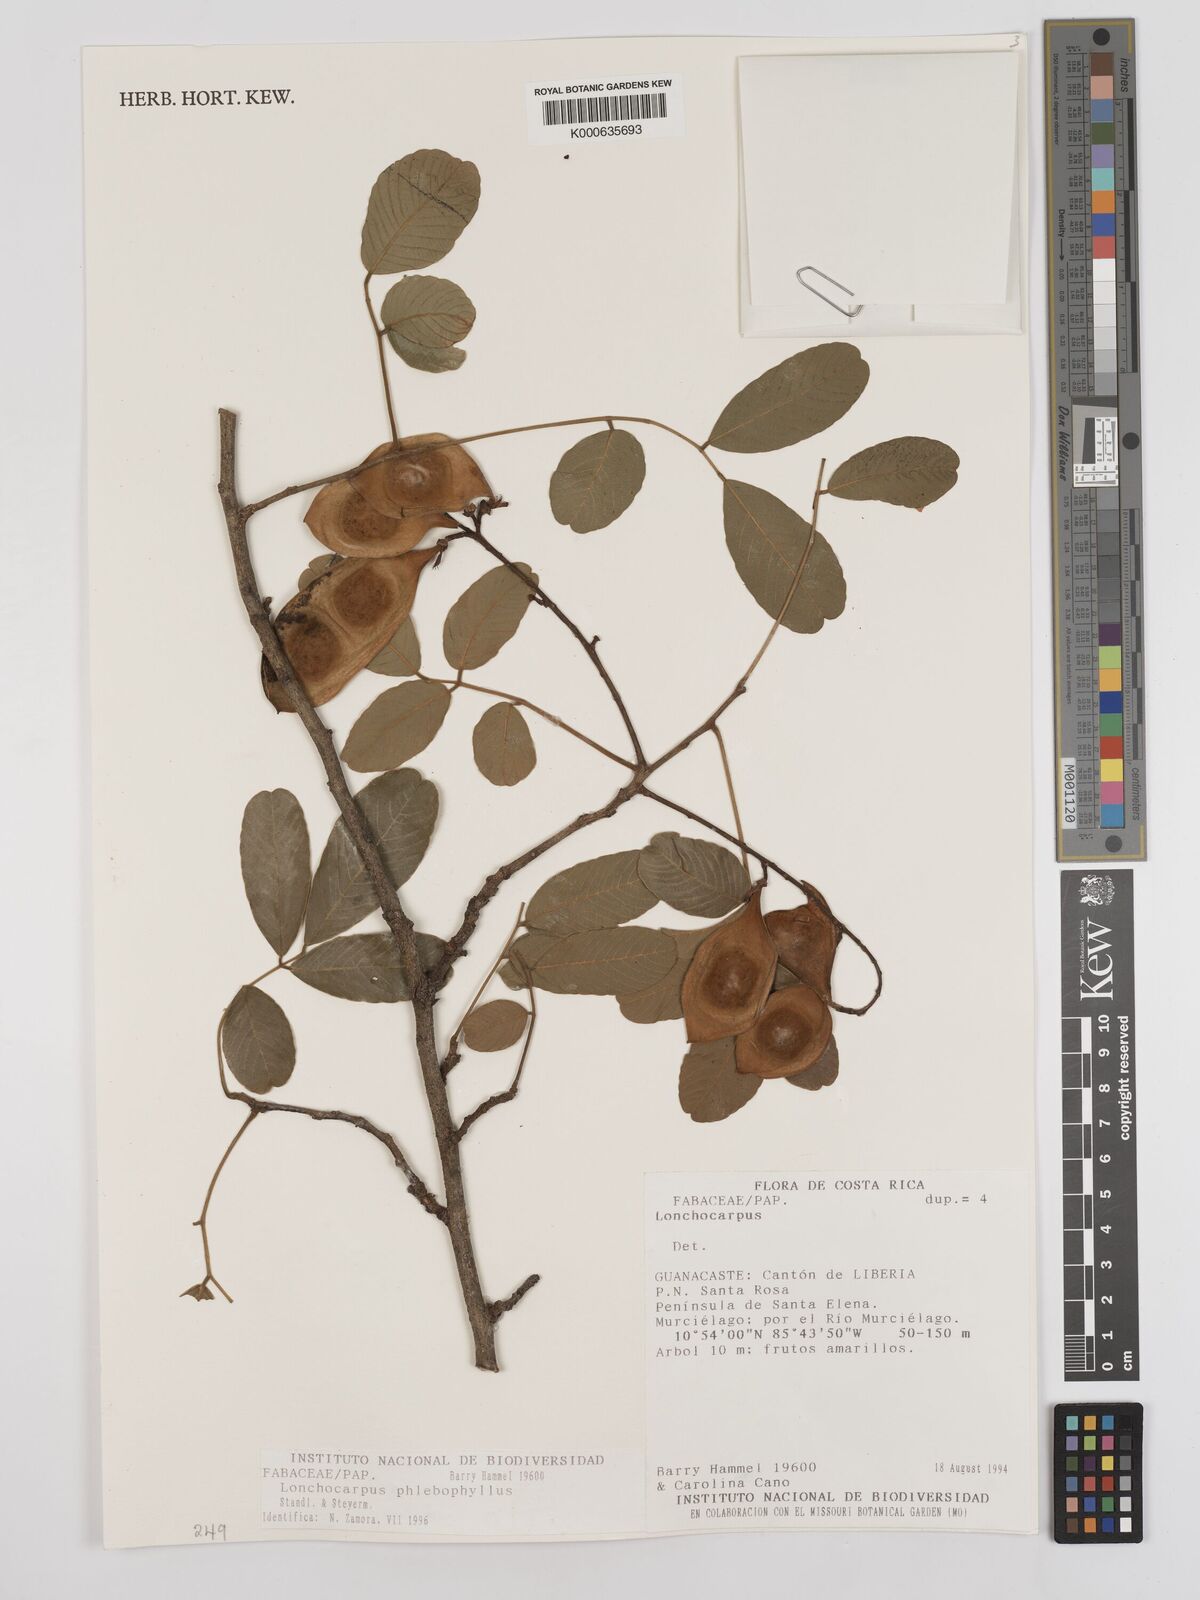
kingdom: Plantae
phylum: Tracheophyta
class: Magnoliopsida
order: Fabales
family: Fabaceae
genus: Lonchocarpus
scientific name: Lonchocarpus phlebophyllus
